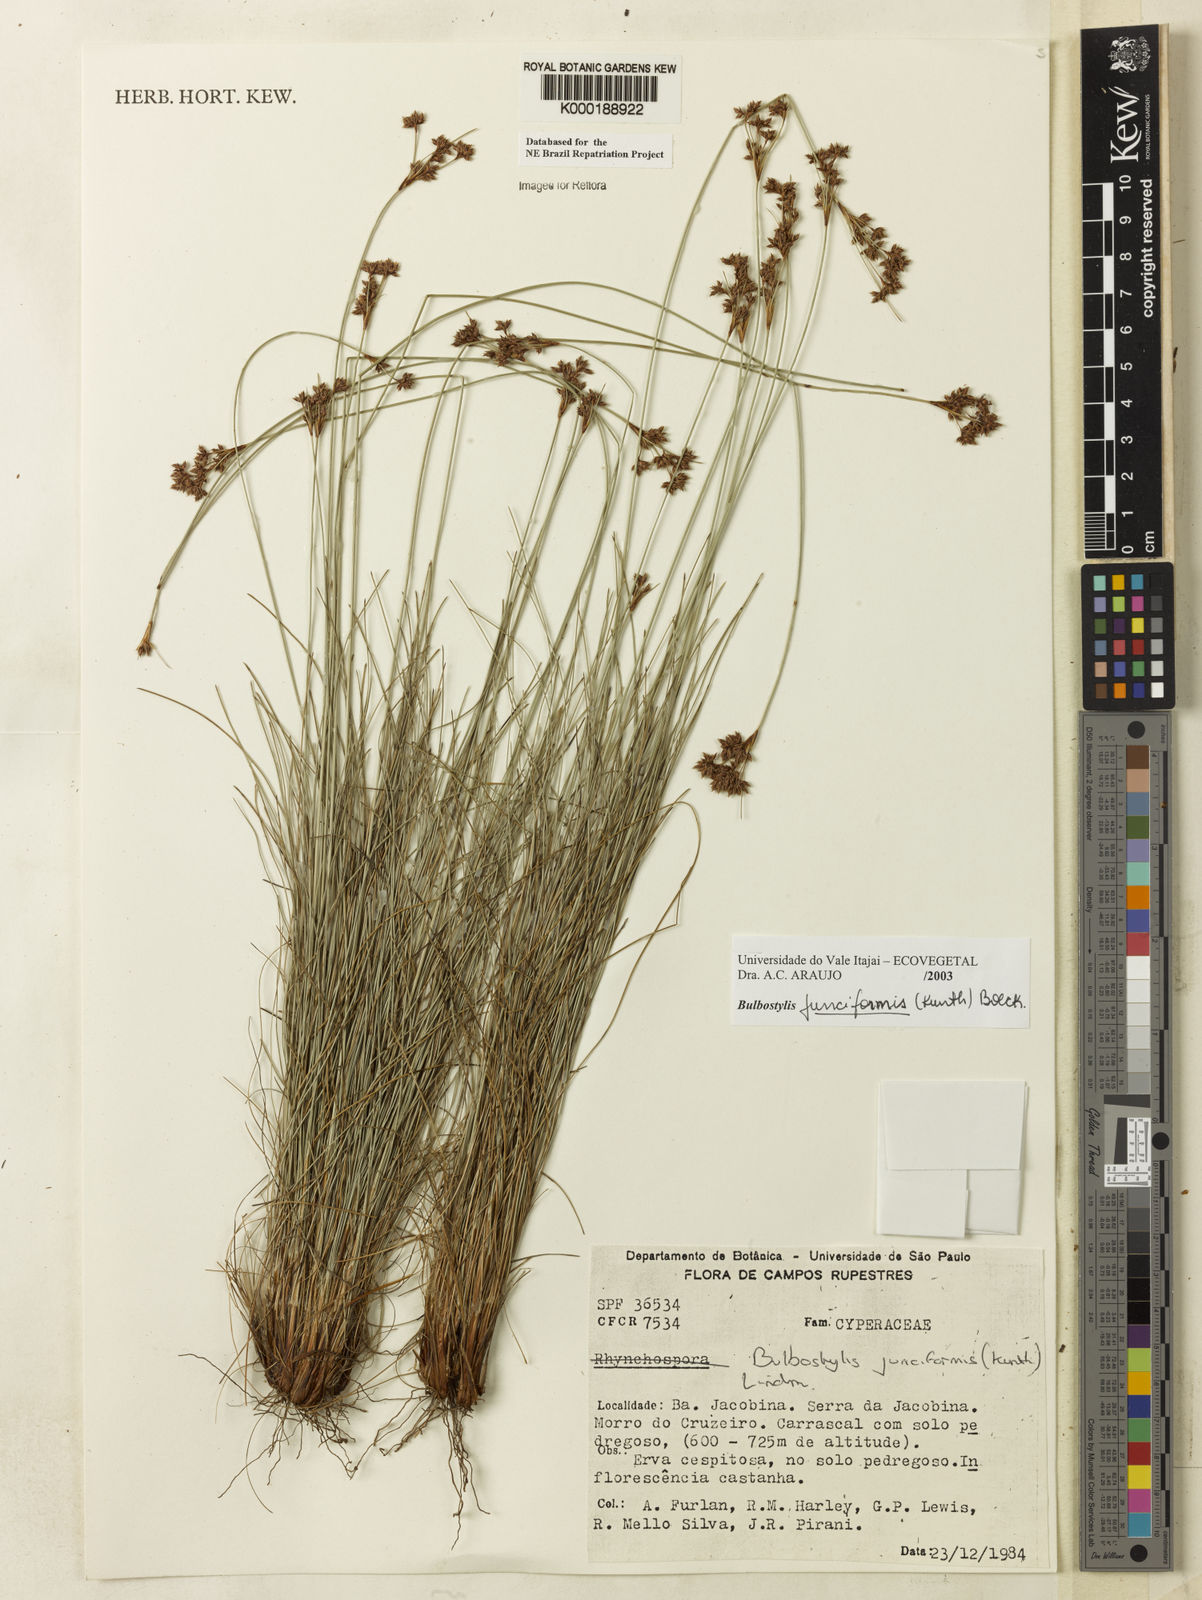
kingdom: Plantae
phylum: Tracheophyta
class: Liliopsida
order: Poales
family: Cyperaceae
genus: Bulbostylis
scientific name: Bulbostylis
